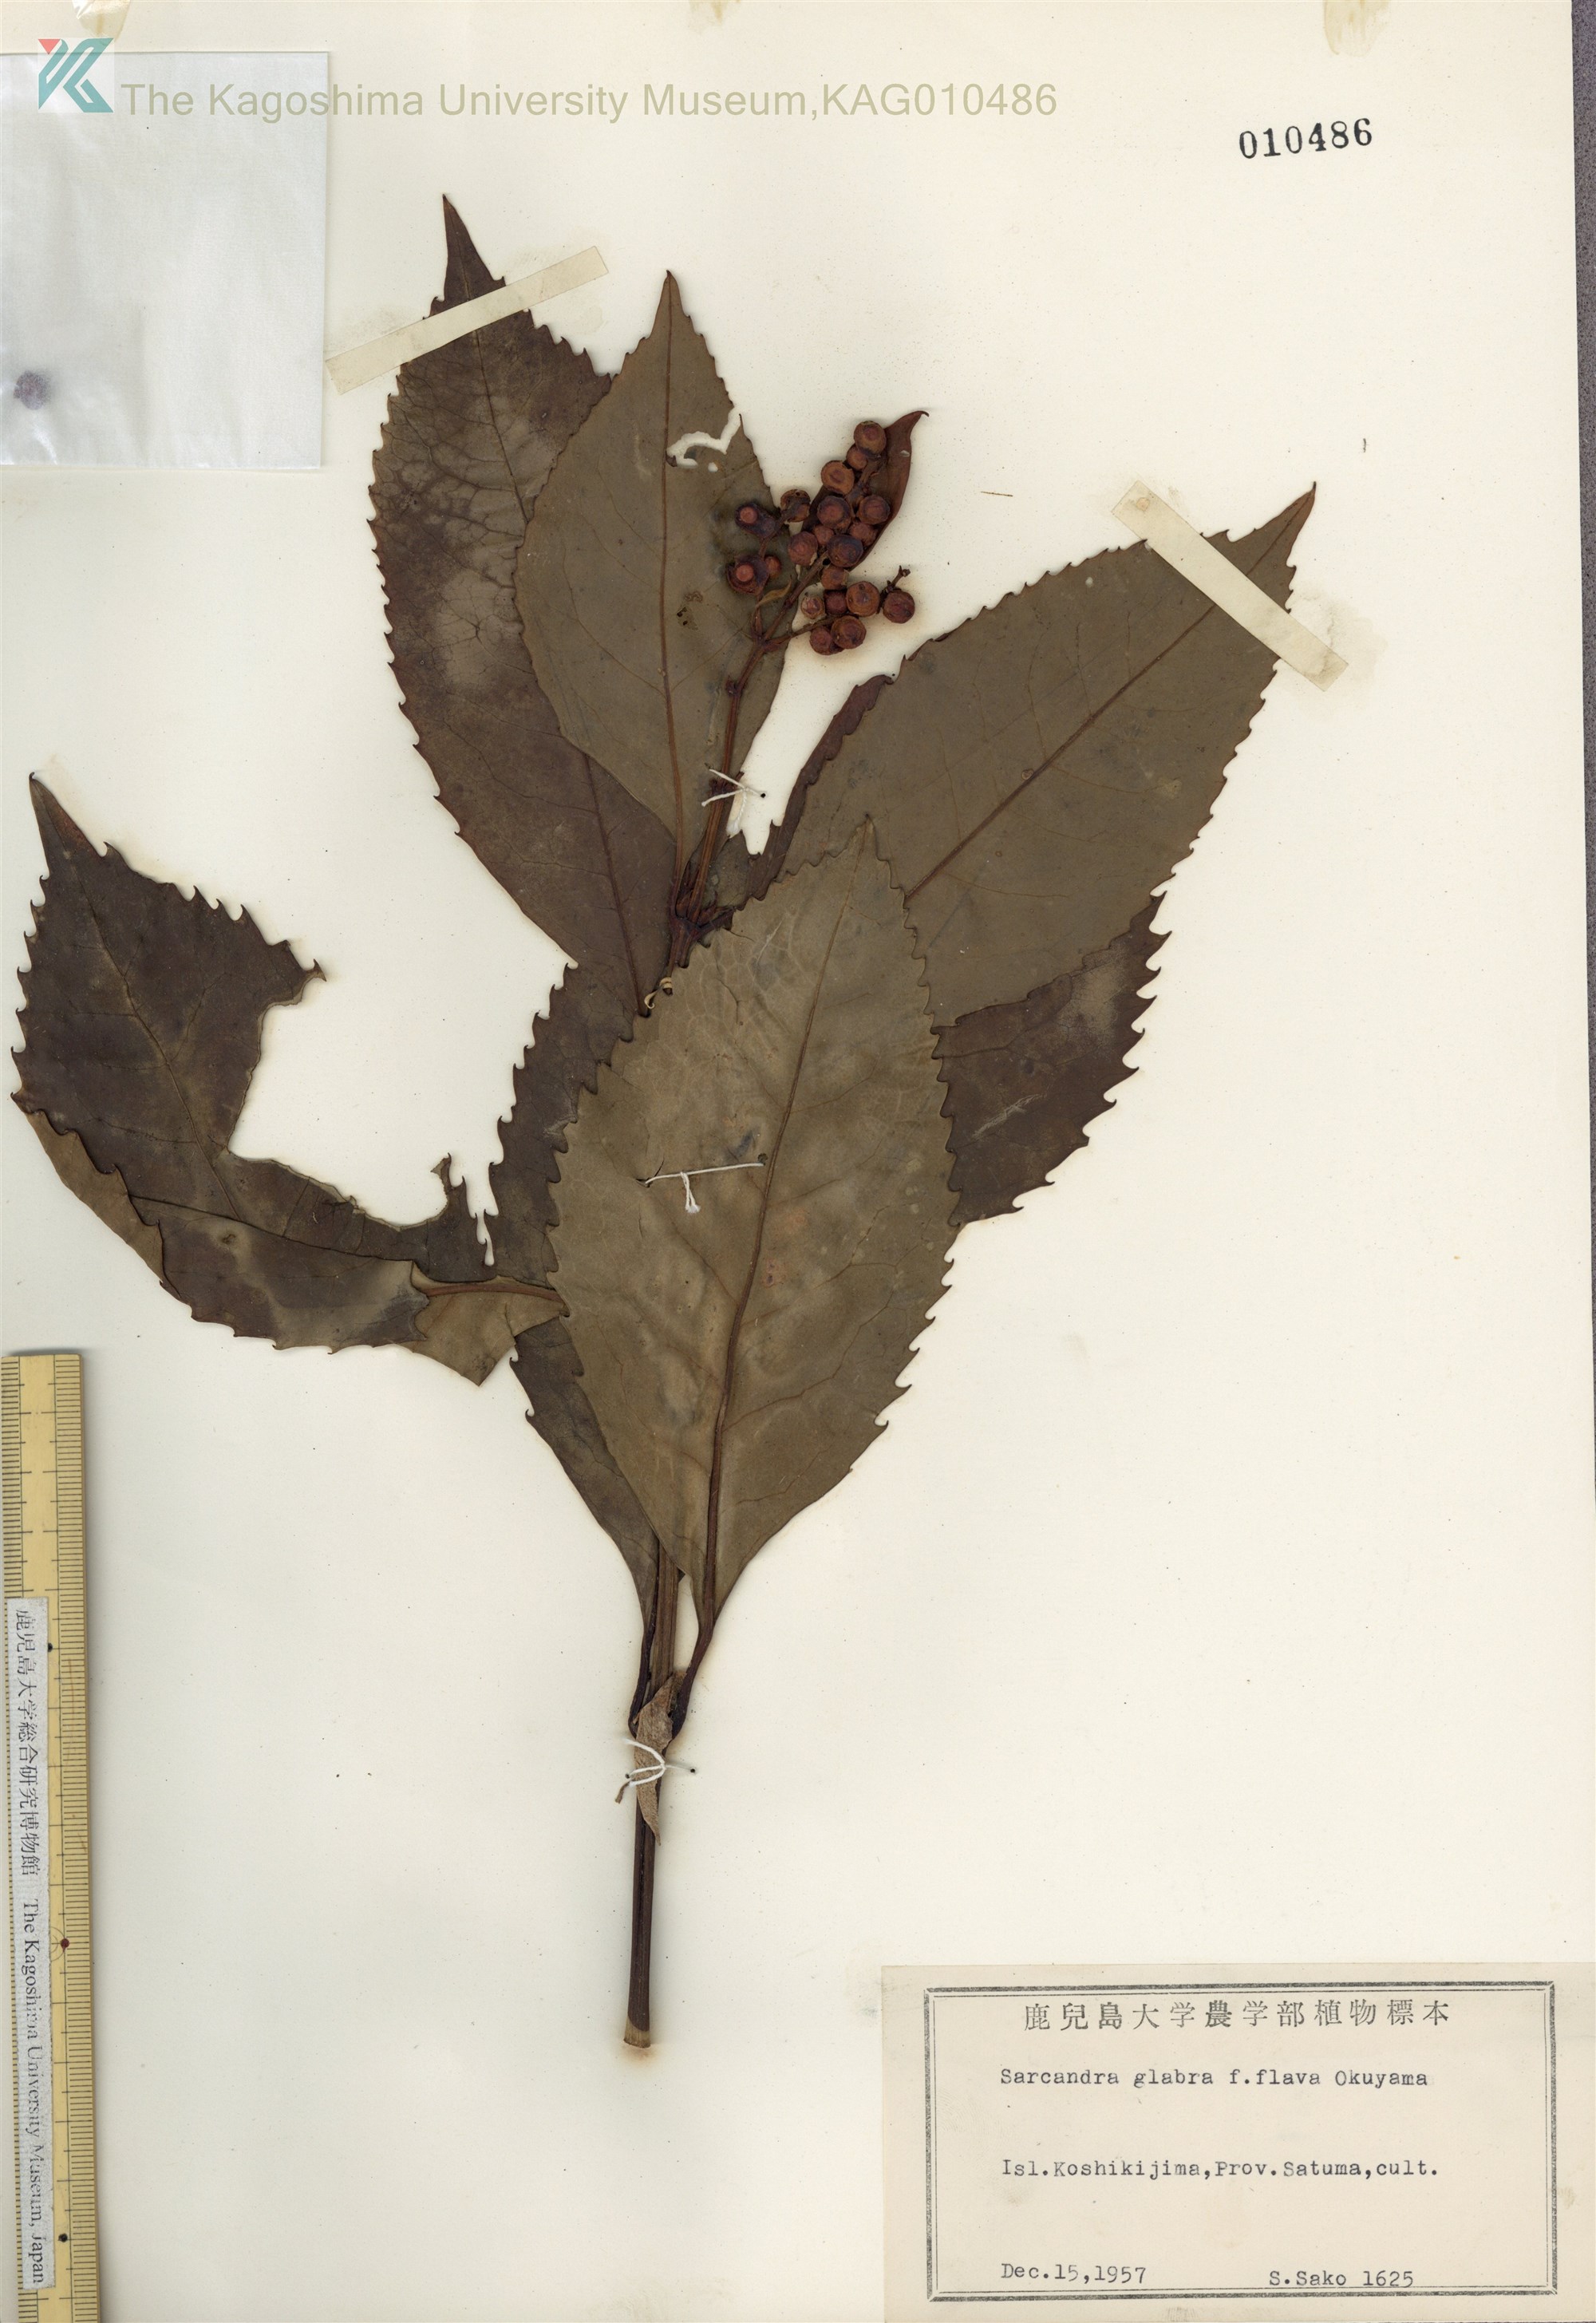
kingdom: Plantae
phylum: Tracheophyta
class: Magnoliopsida
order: Chloranthales
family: Chloranthaceae
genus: Sarcandra
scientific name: Sarcandra glabra
